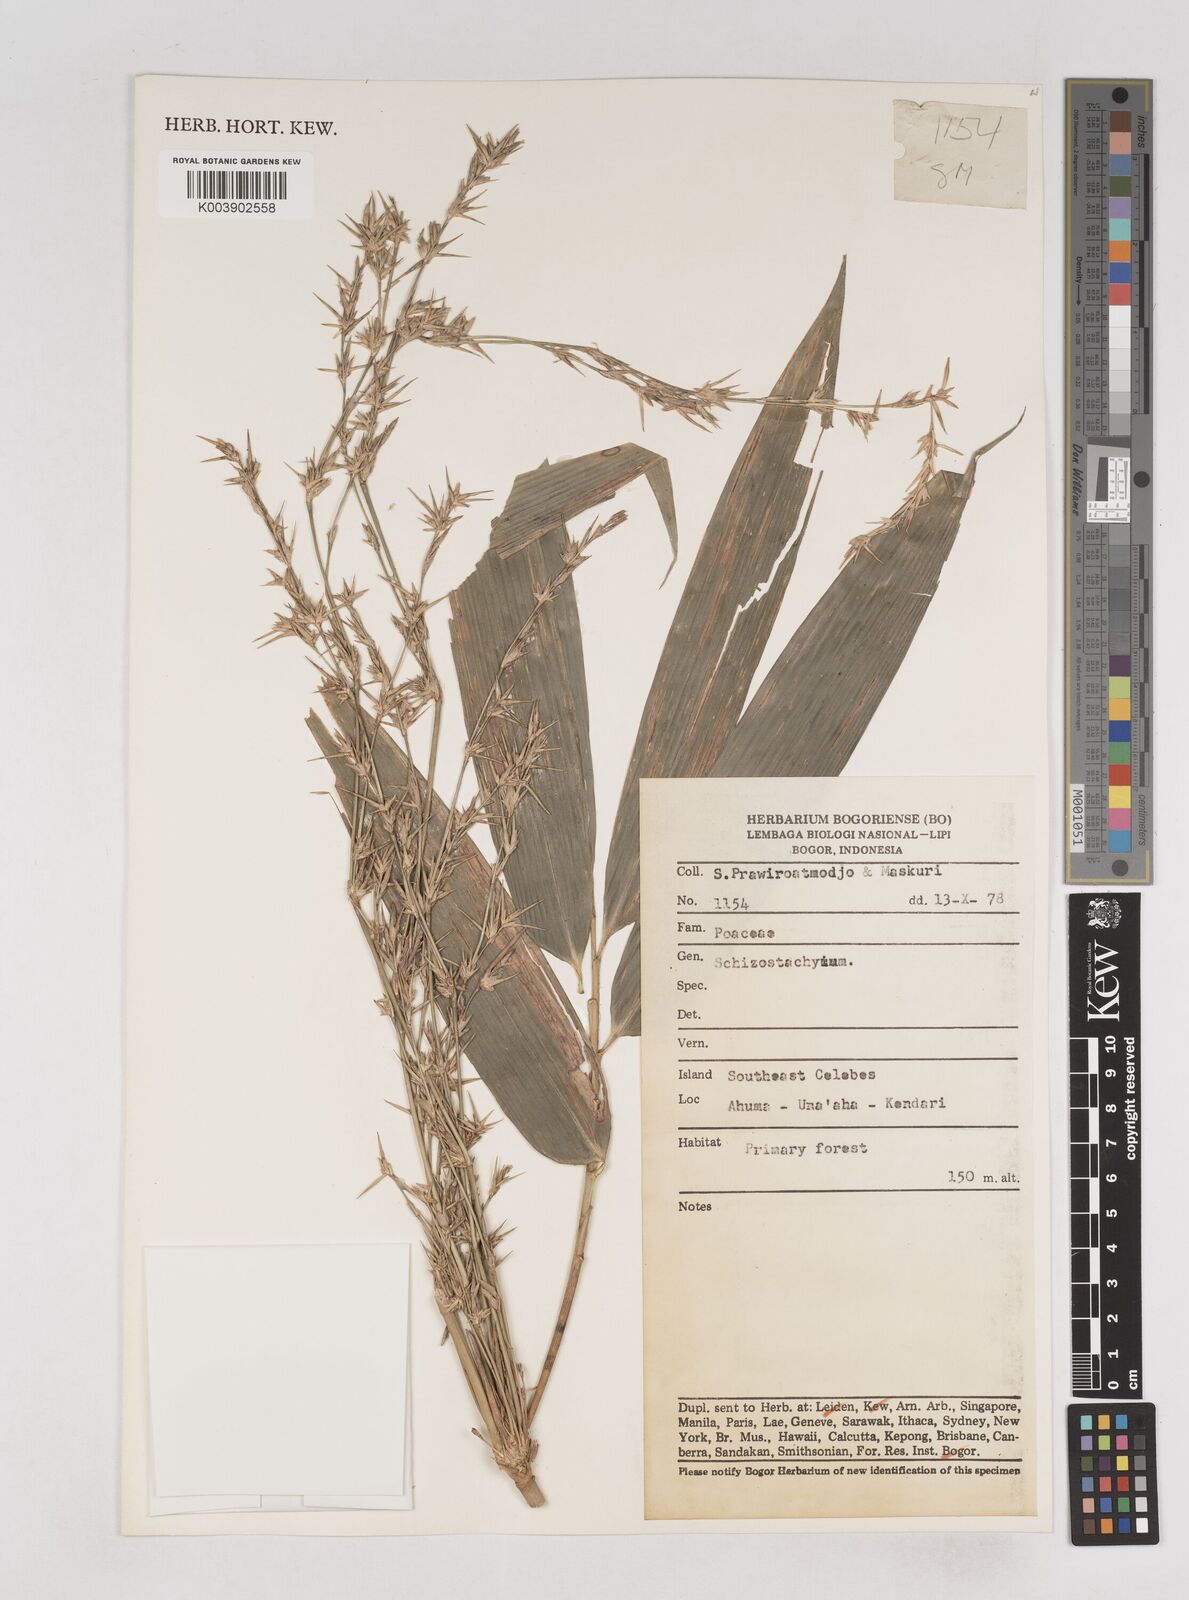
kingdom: Plantae
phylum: Tracheophyta
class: Liliopsida
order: Poales
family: Poaceae
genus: Schizostachyum
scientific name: Schizostachyum
